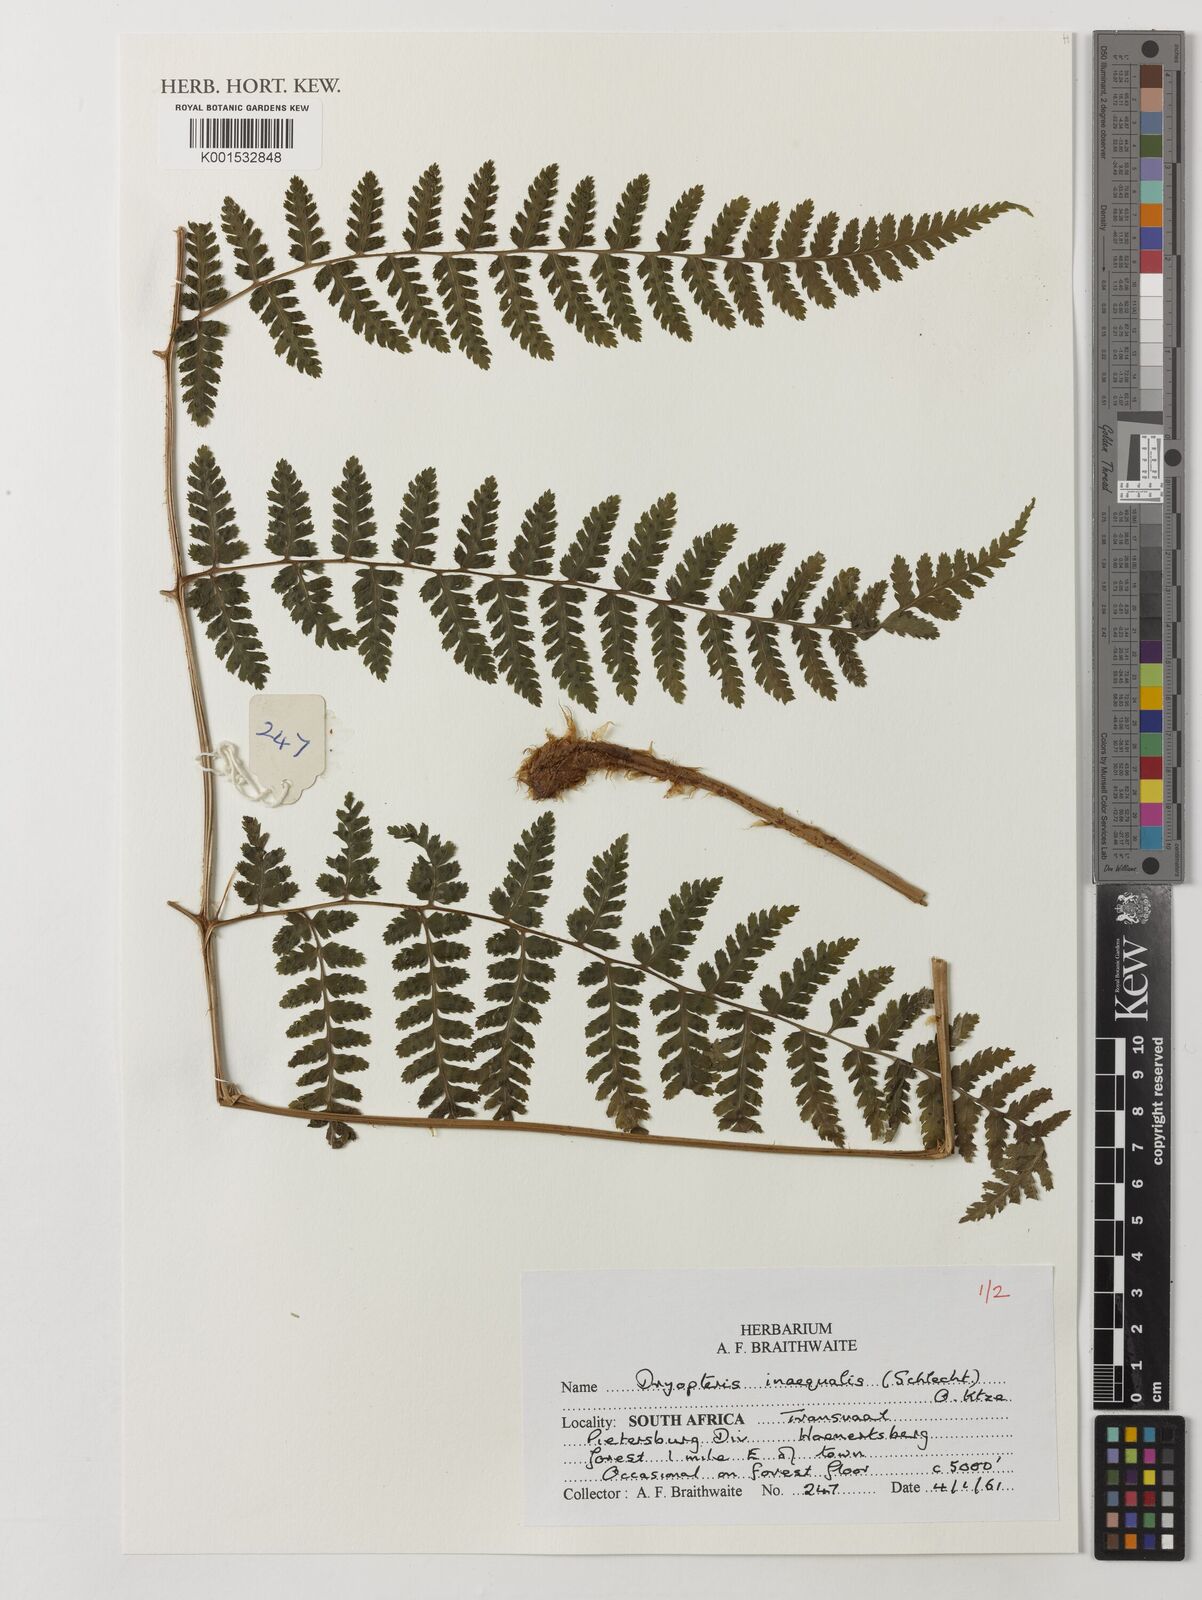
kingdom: Plantae
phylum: Tracheophyta
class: Polypodiopsida
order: Polypodiales
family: Dryopteridaceae
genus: Dryopteris
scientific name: Dryopteris inaequalis
